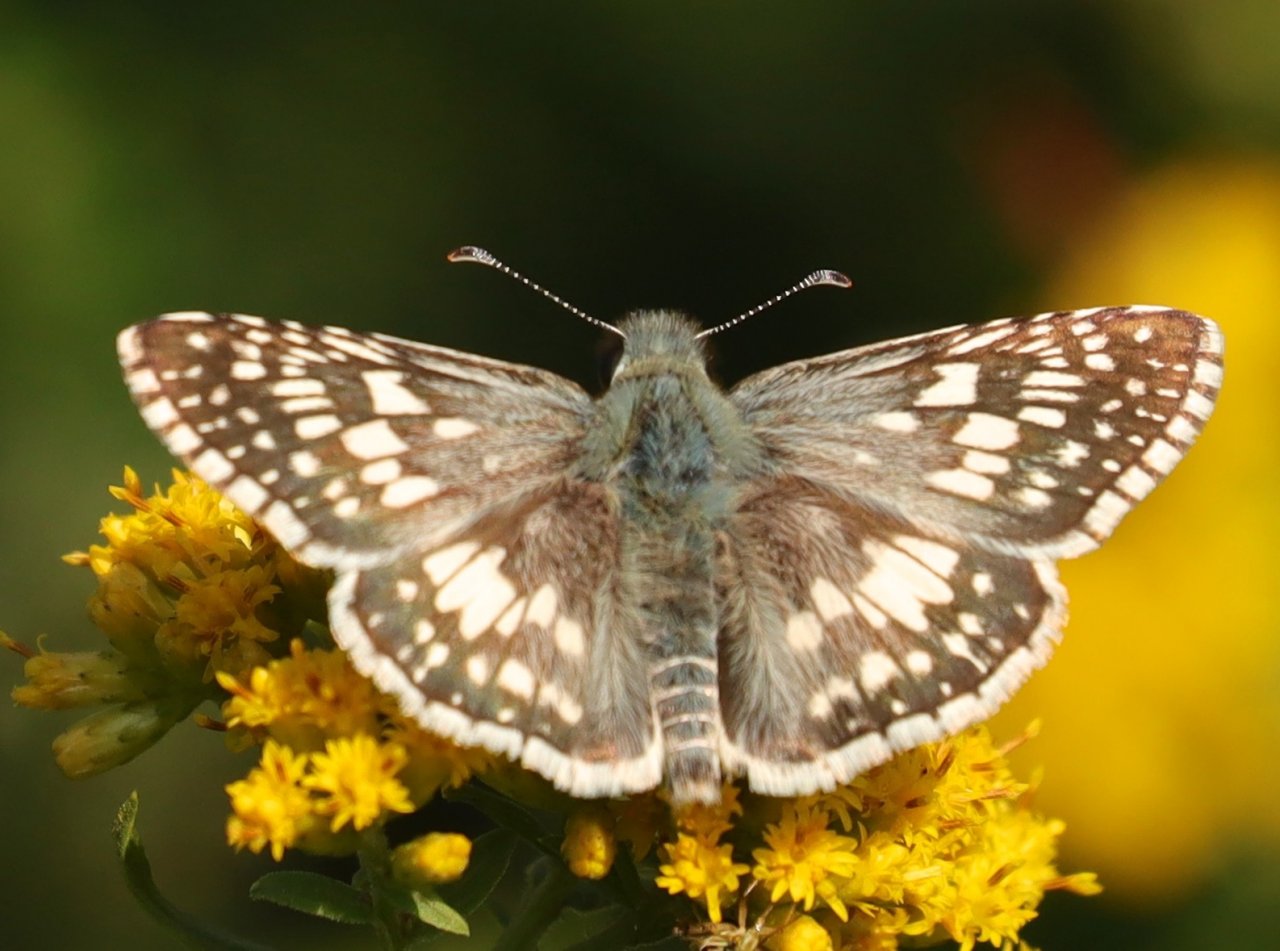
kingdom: Animalia
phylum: Arthropoda
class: Insecta
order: Lepidoptera
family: Hesperiidae
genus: Pyrgus
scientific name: Pyrgus communis
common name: Common Checkered-Skipper
